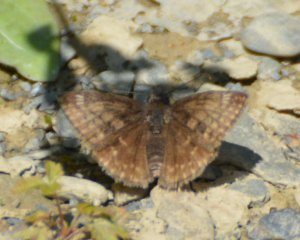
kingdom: Animalia
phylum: Arthropoda
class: Insecta
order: Lepidoptera
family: Hesperiidae
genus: Erynnis
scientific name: Erynnis icelus
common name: Dreamy Duskywing
